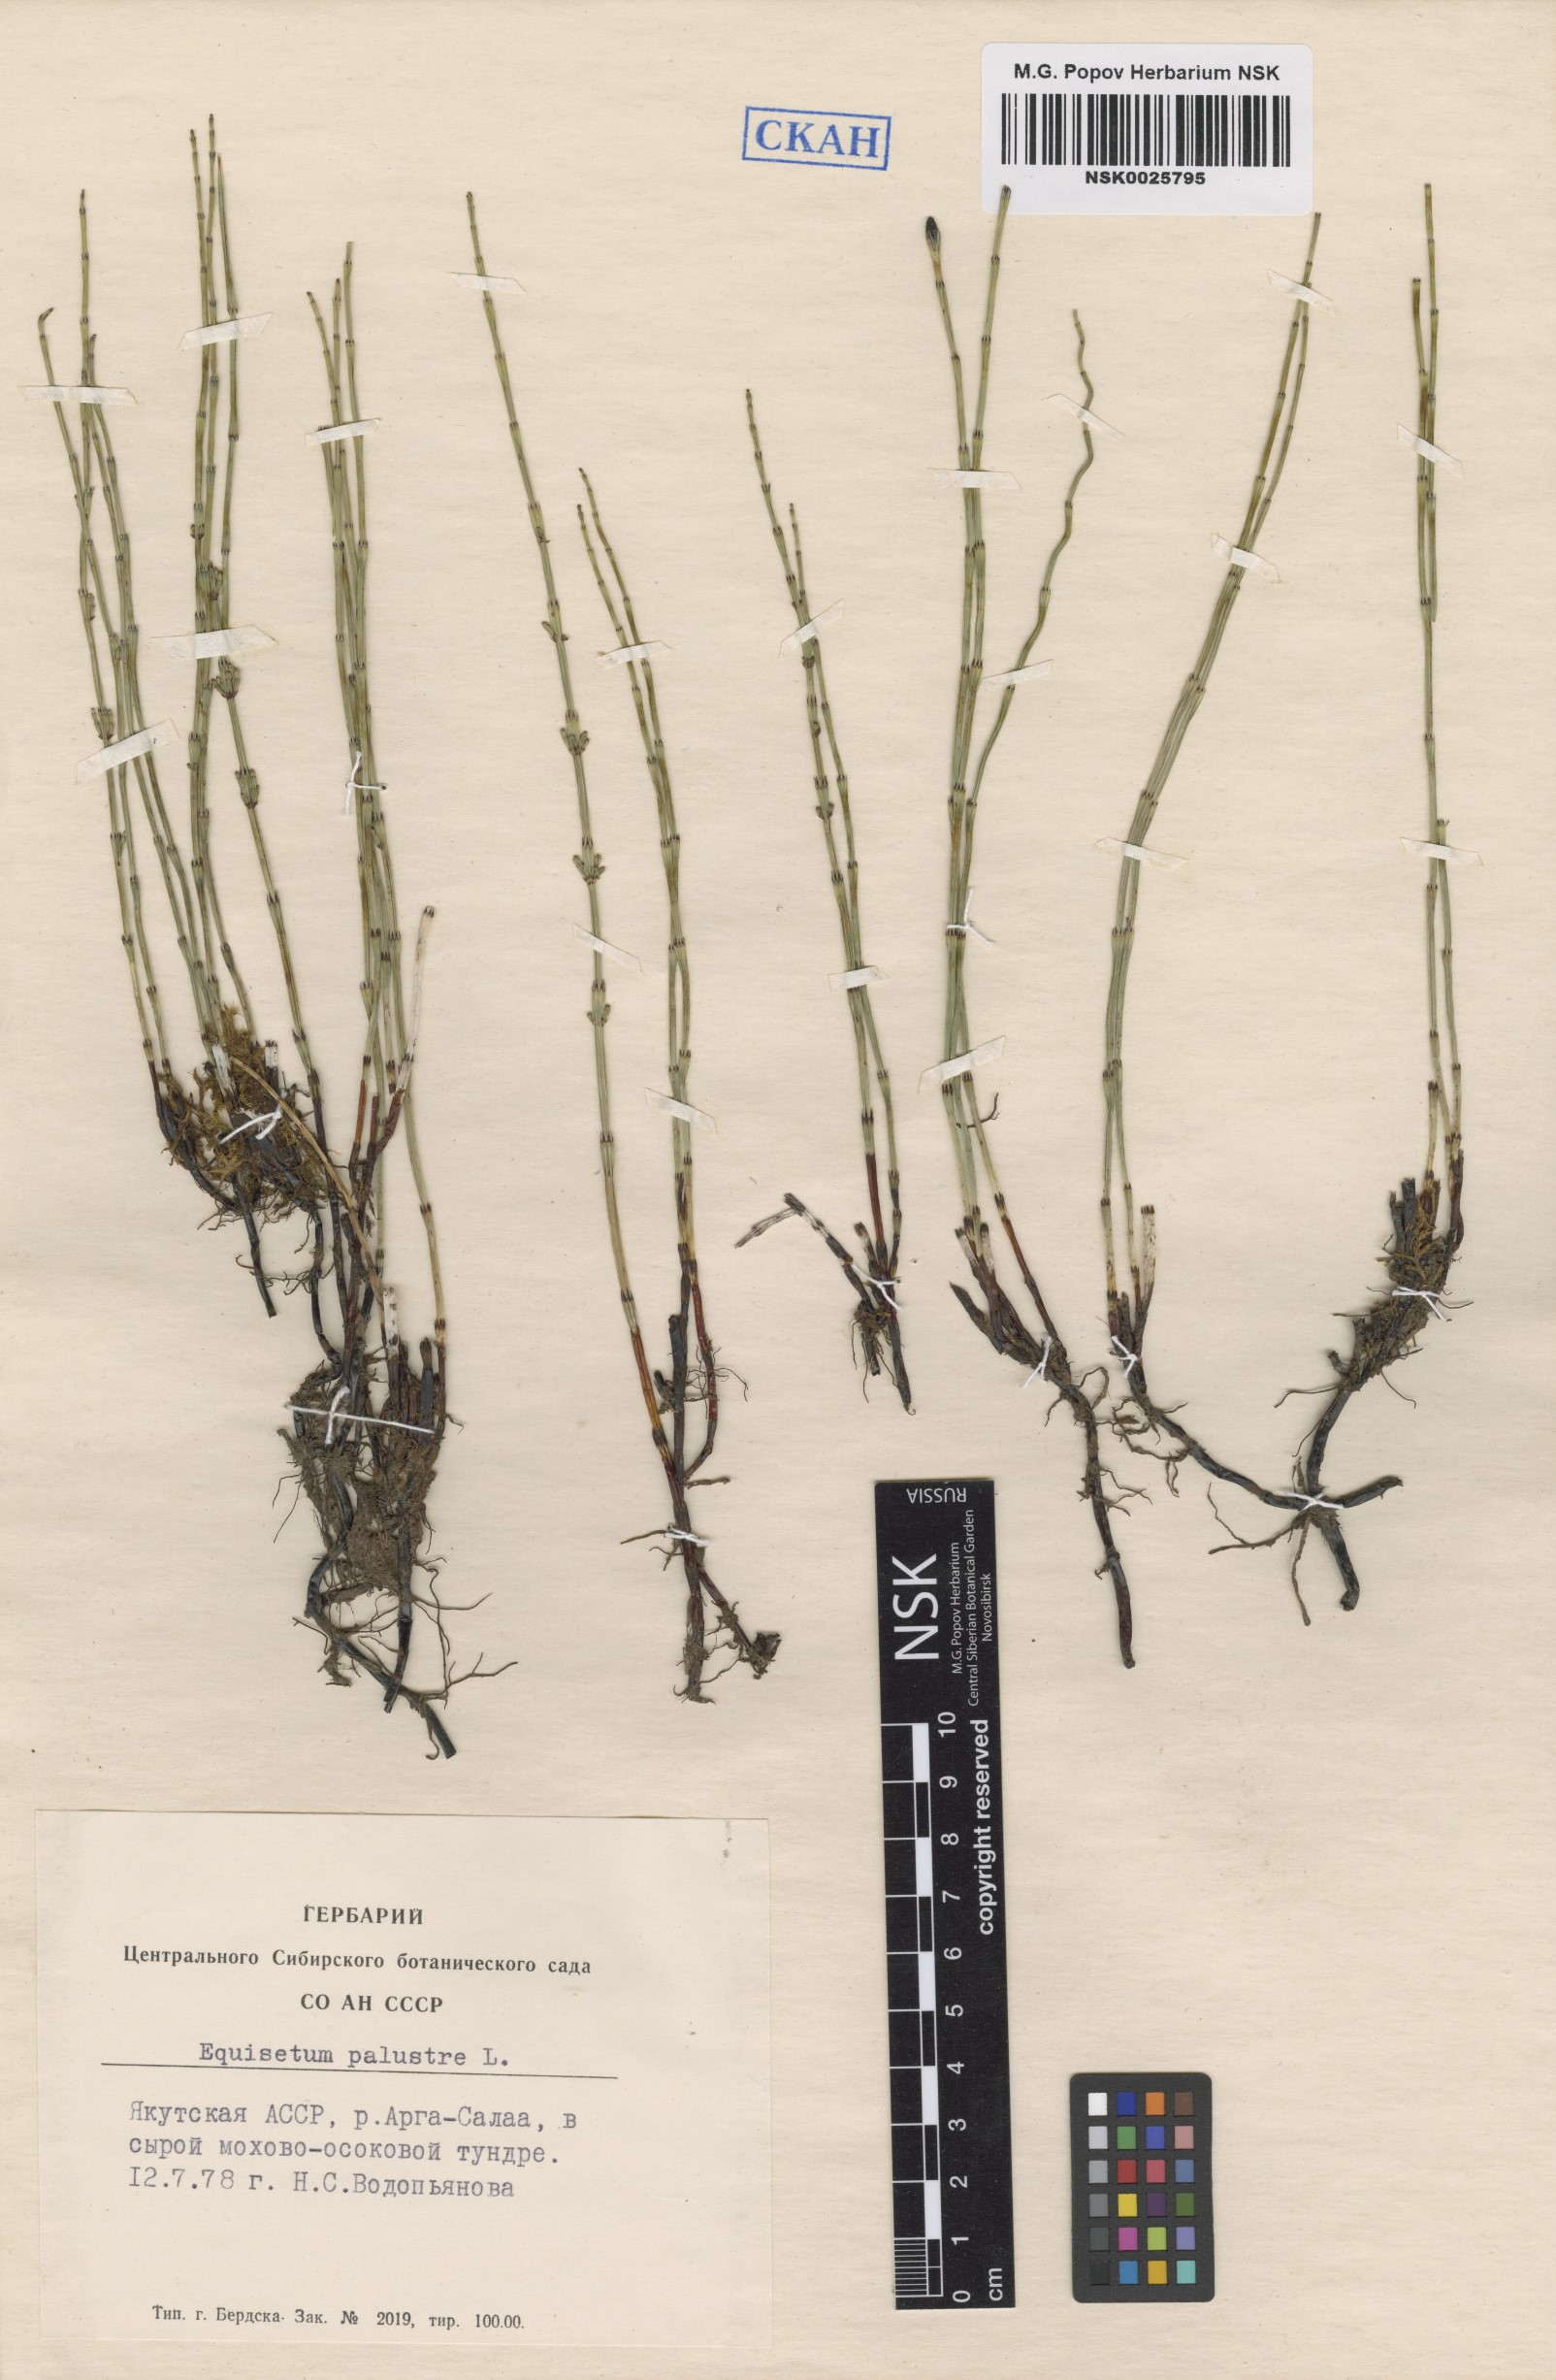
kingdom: Plantae
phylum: Tracheophyta
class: Polypodiopsida
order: Equisetales
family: Equisetaceae
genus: Equisetum
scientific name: Equisetum palustre
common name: Marsh horsetail
